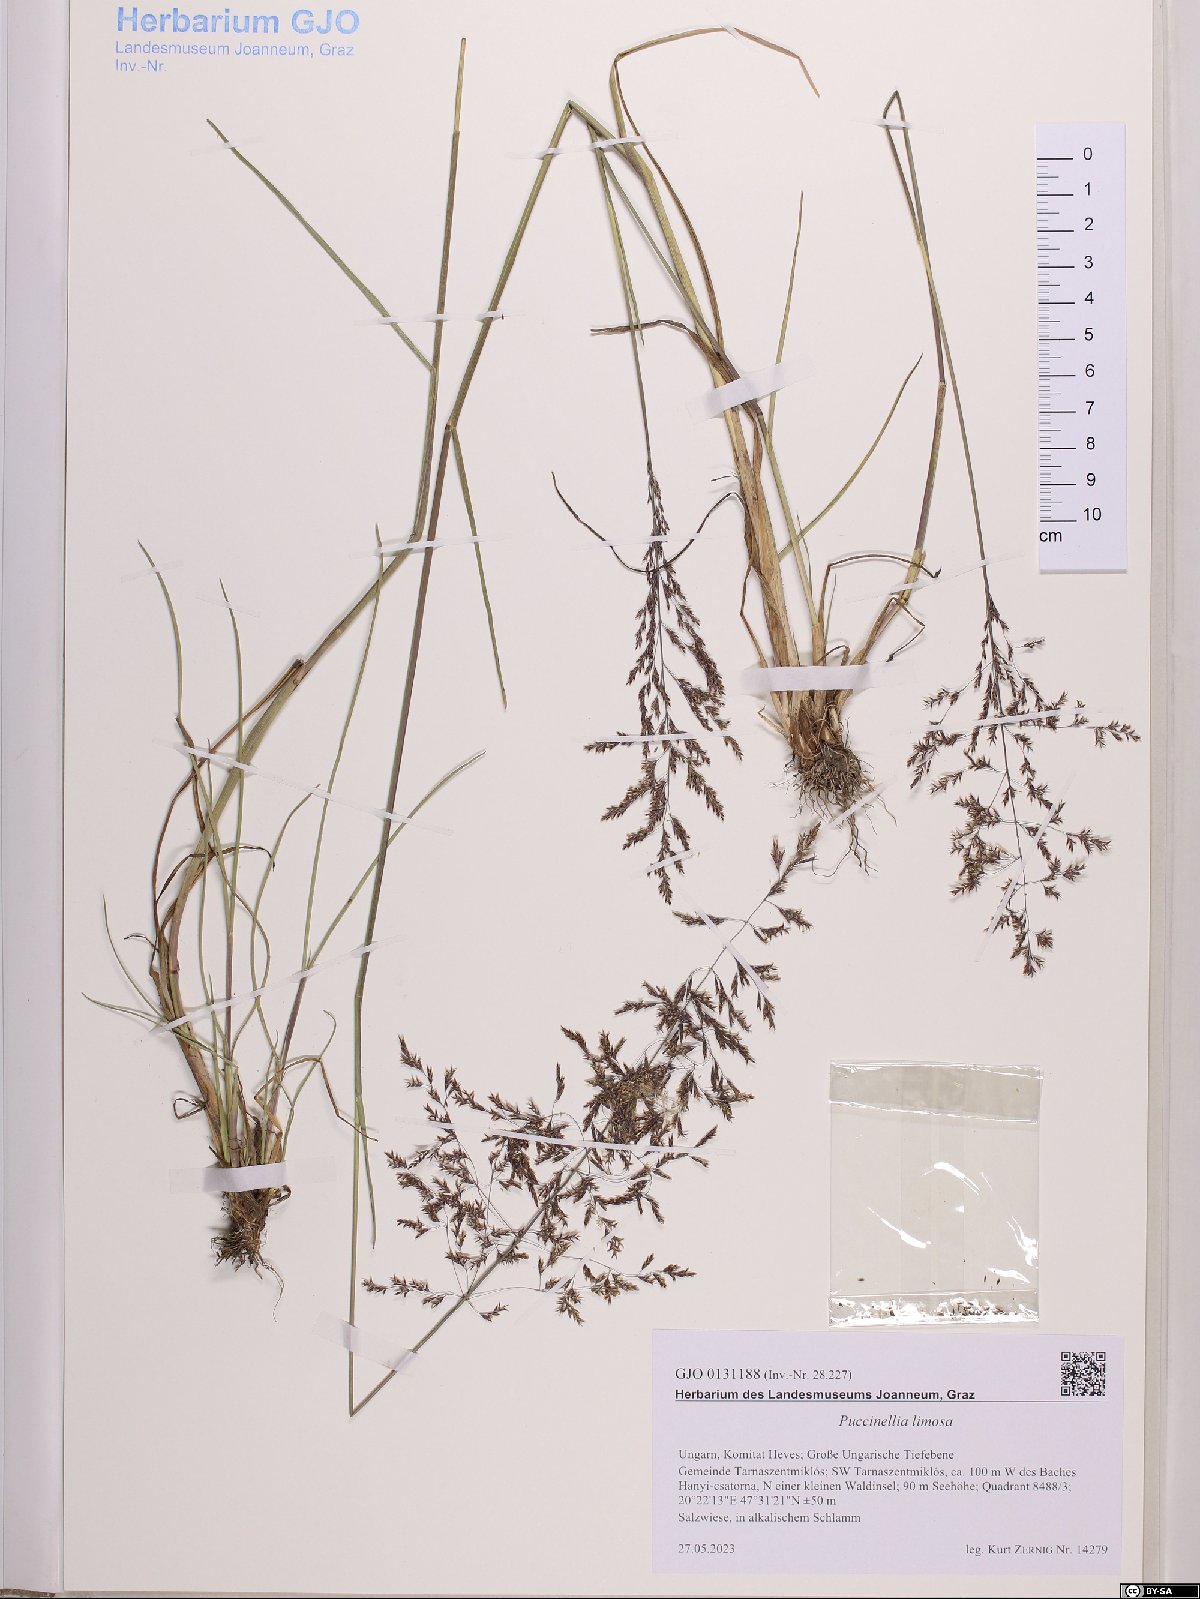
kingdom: Plantae
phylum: Tracheophyta
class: Liliopsida
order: Poales
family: Poaceae
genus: Puccinellia
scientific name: Puccinellia distans
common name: Weeping alkaligrass
